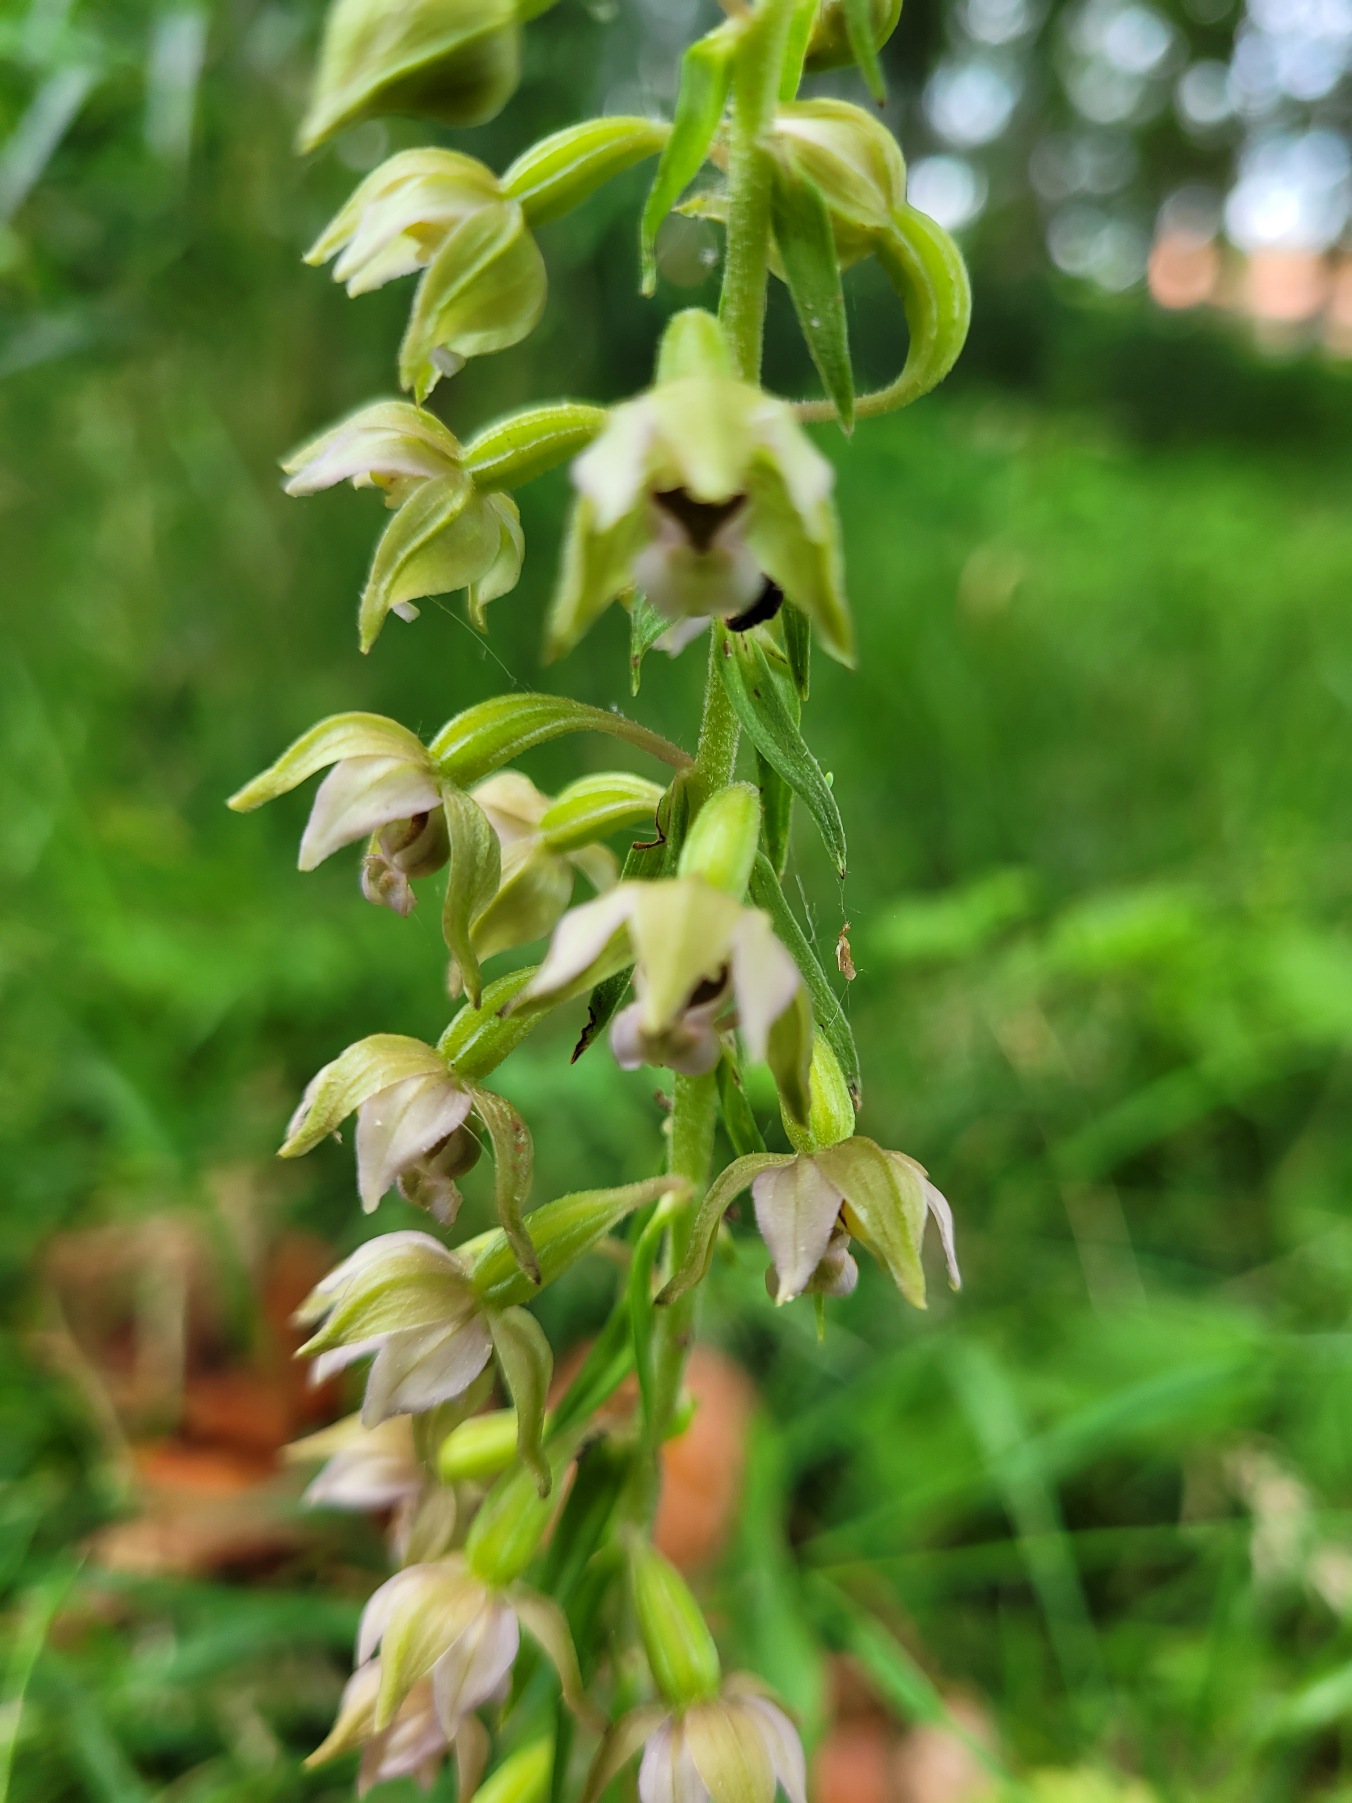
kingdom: Plantae
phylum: Tracheophyta
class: Liliopsida
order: Asparagales
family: Orchidaceae
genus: Epipactis
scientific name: Epipactis helleborine
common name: Skov-hullæbe
